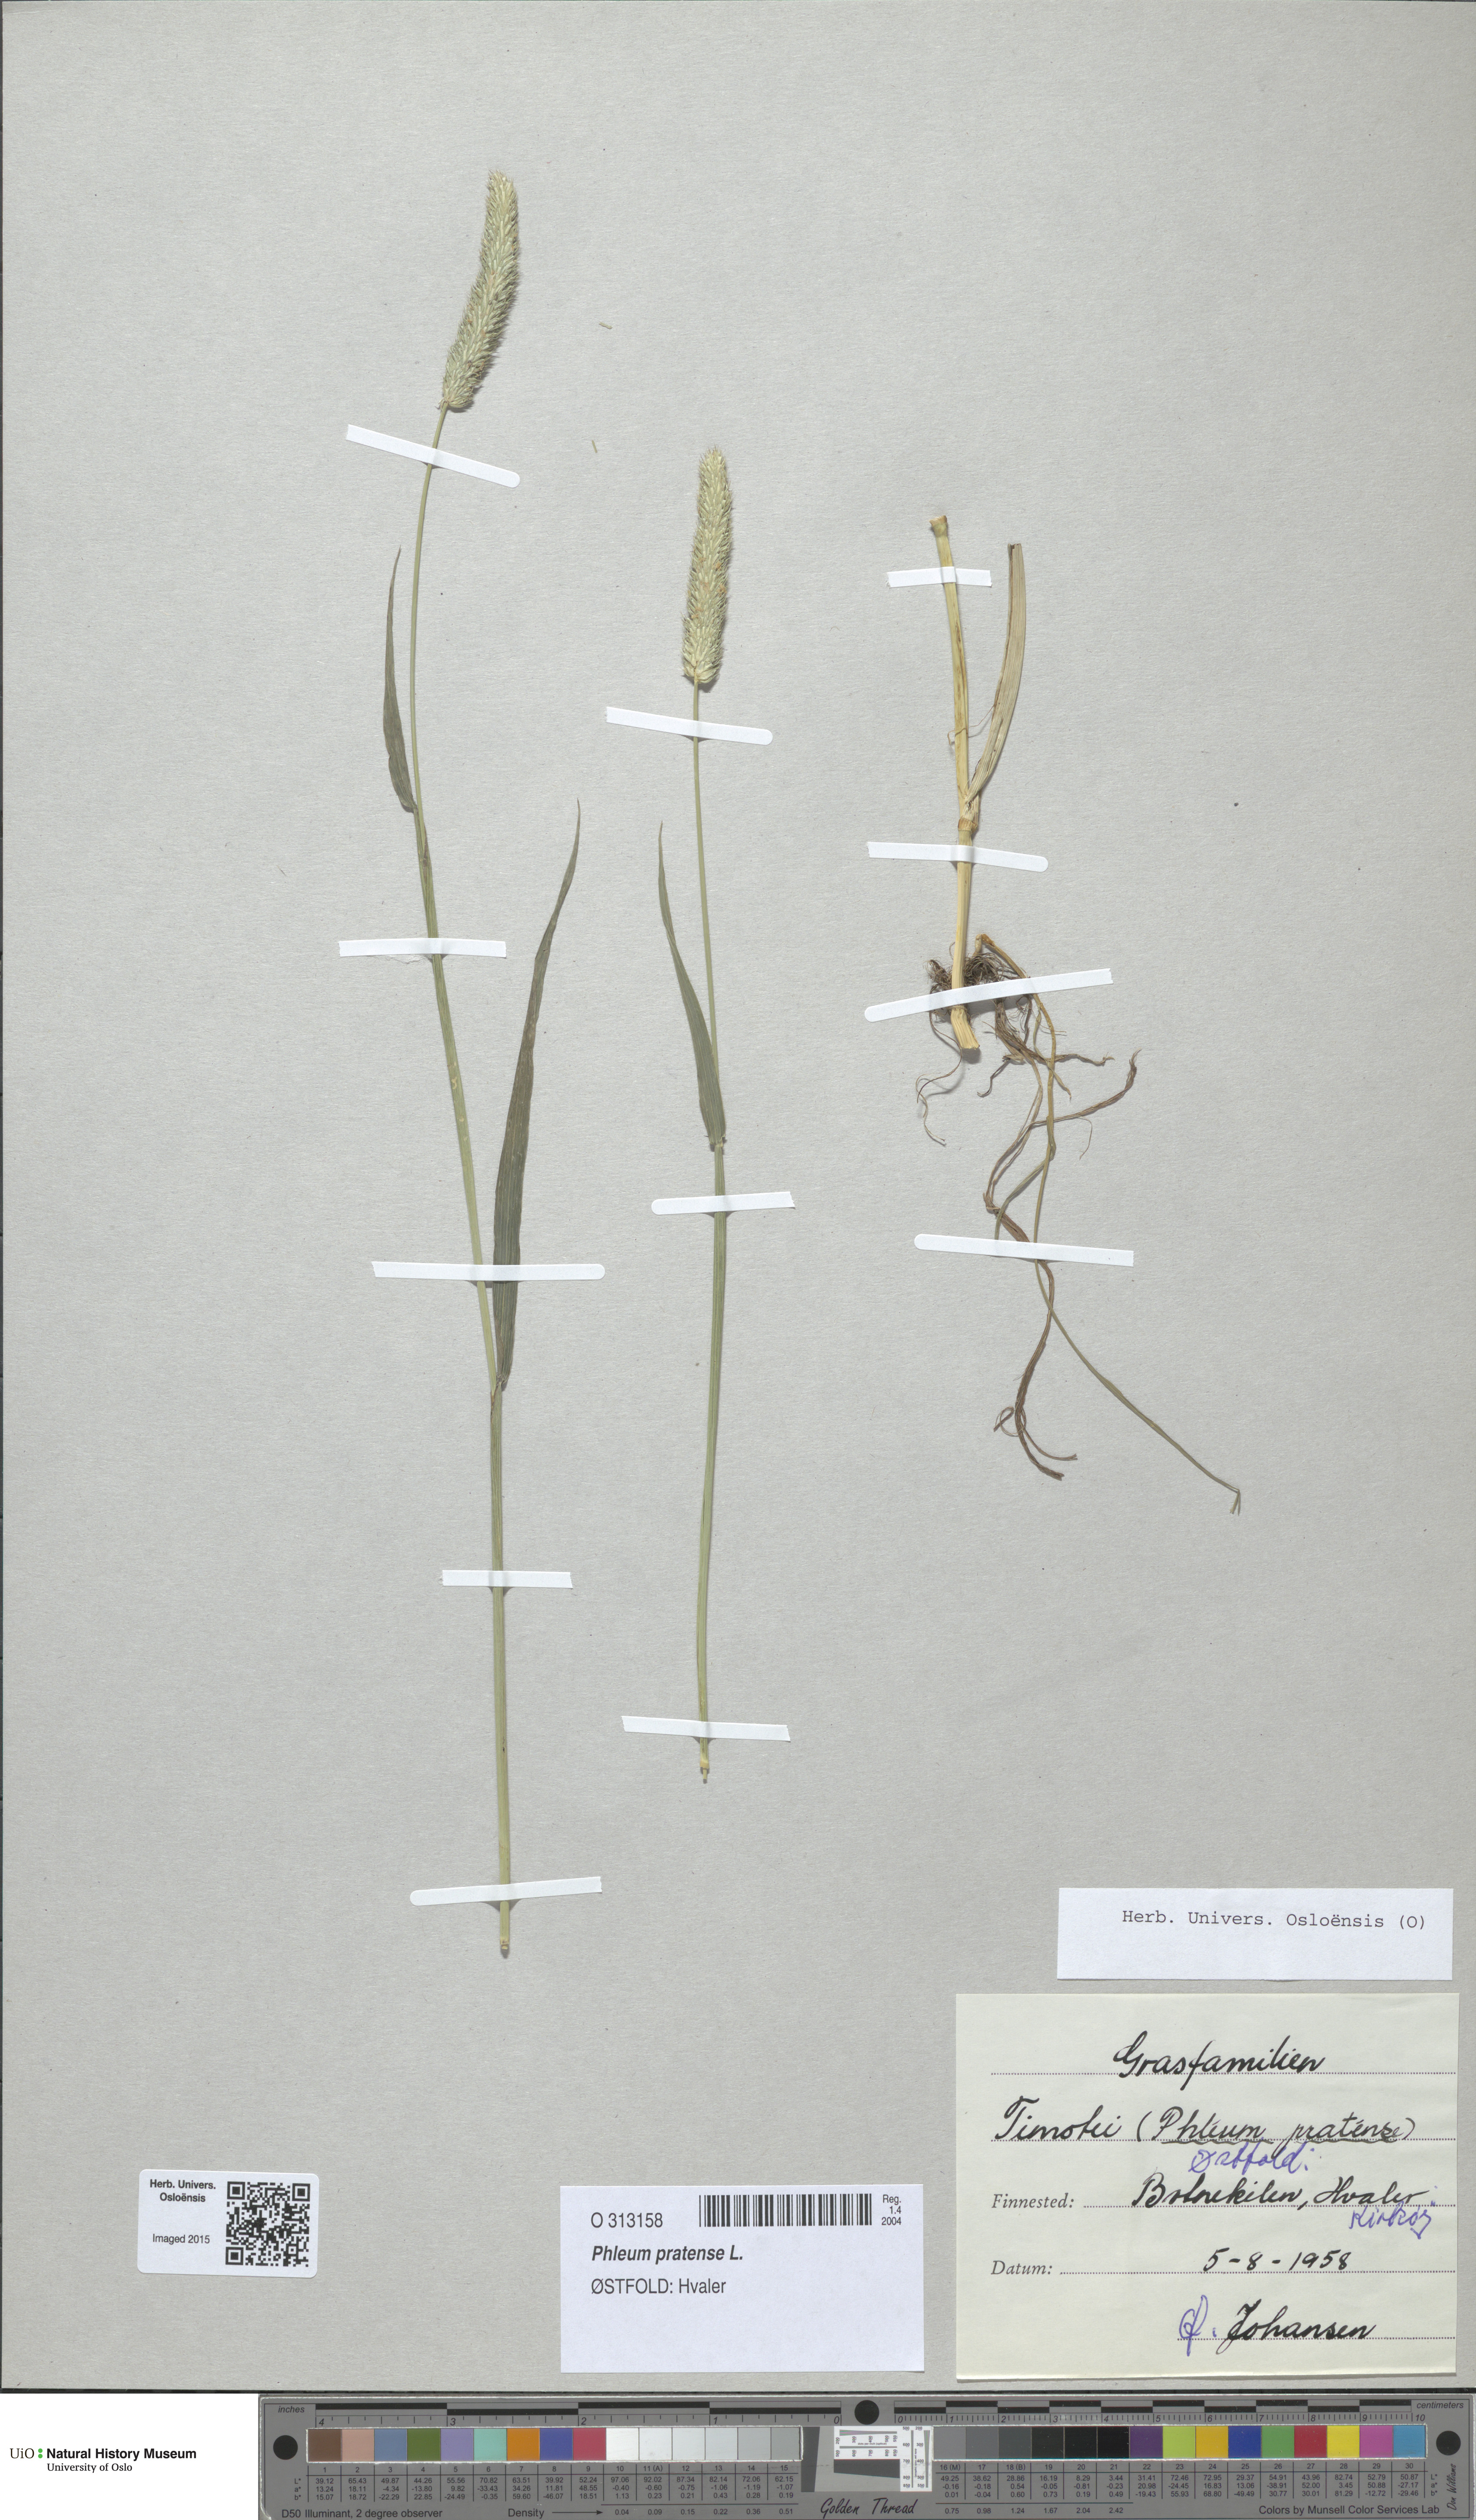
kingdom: Plantae
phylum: Tracheophyta
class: Liliopsida
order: Poales
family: Poaceae
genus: Phleum
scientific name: Phleum pratense
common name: Timothy grass
